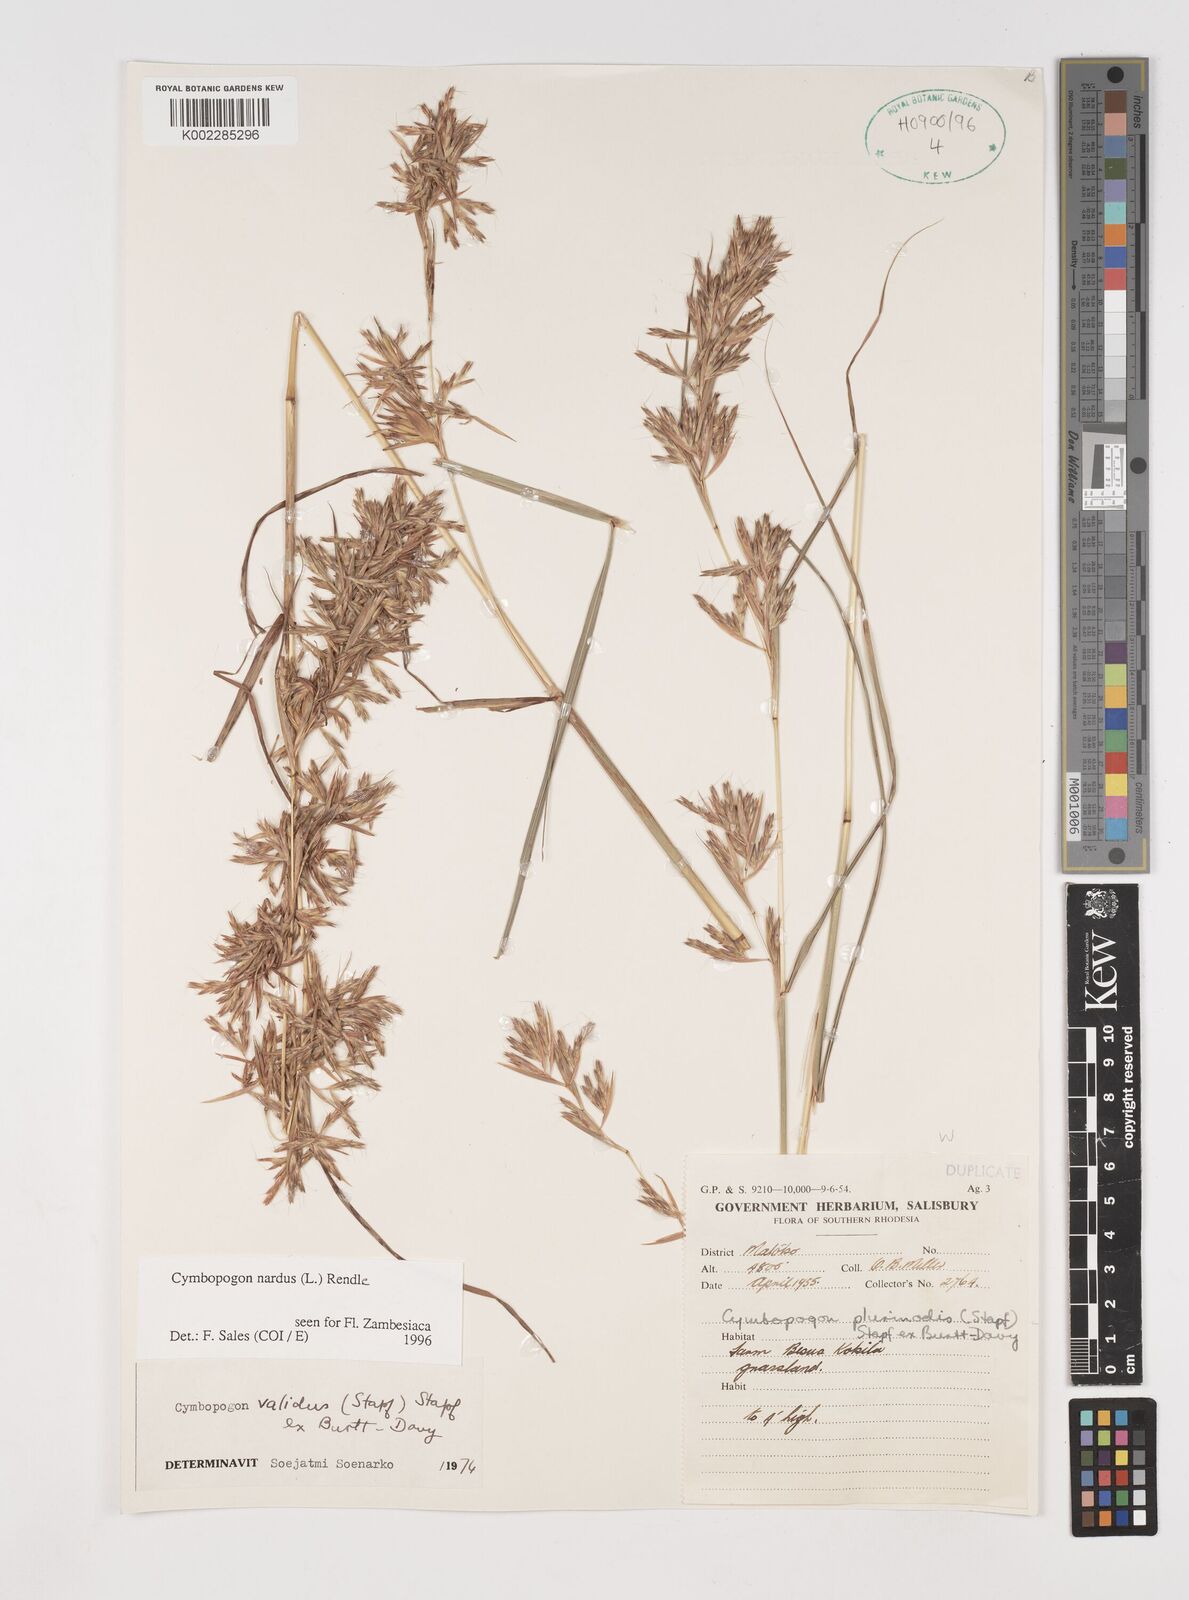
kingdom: Plantae
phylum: Tracheophyta
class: Liliopsida
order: Poales
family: Poaceae
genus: Cymbopogon
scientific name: Cymbopogon nardus
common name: Giant turpentine grass
